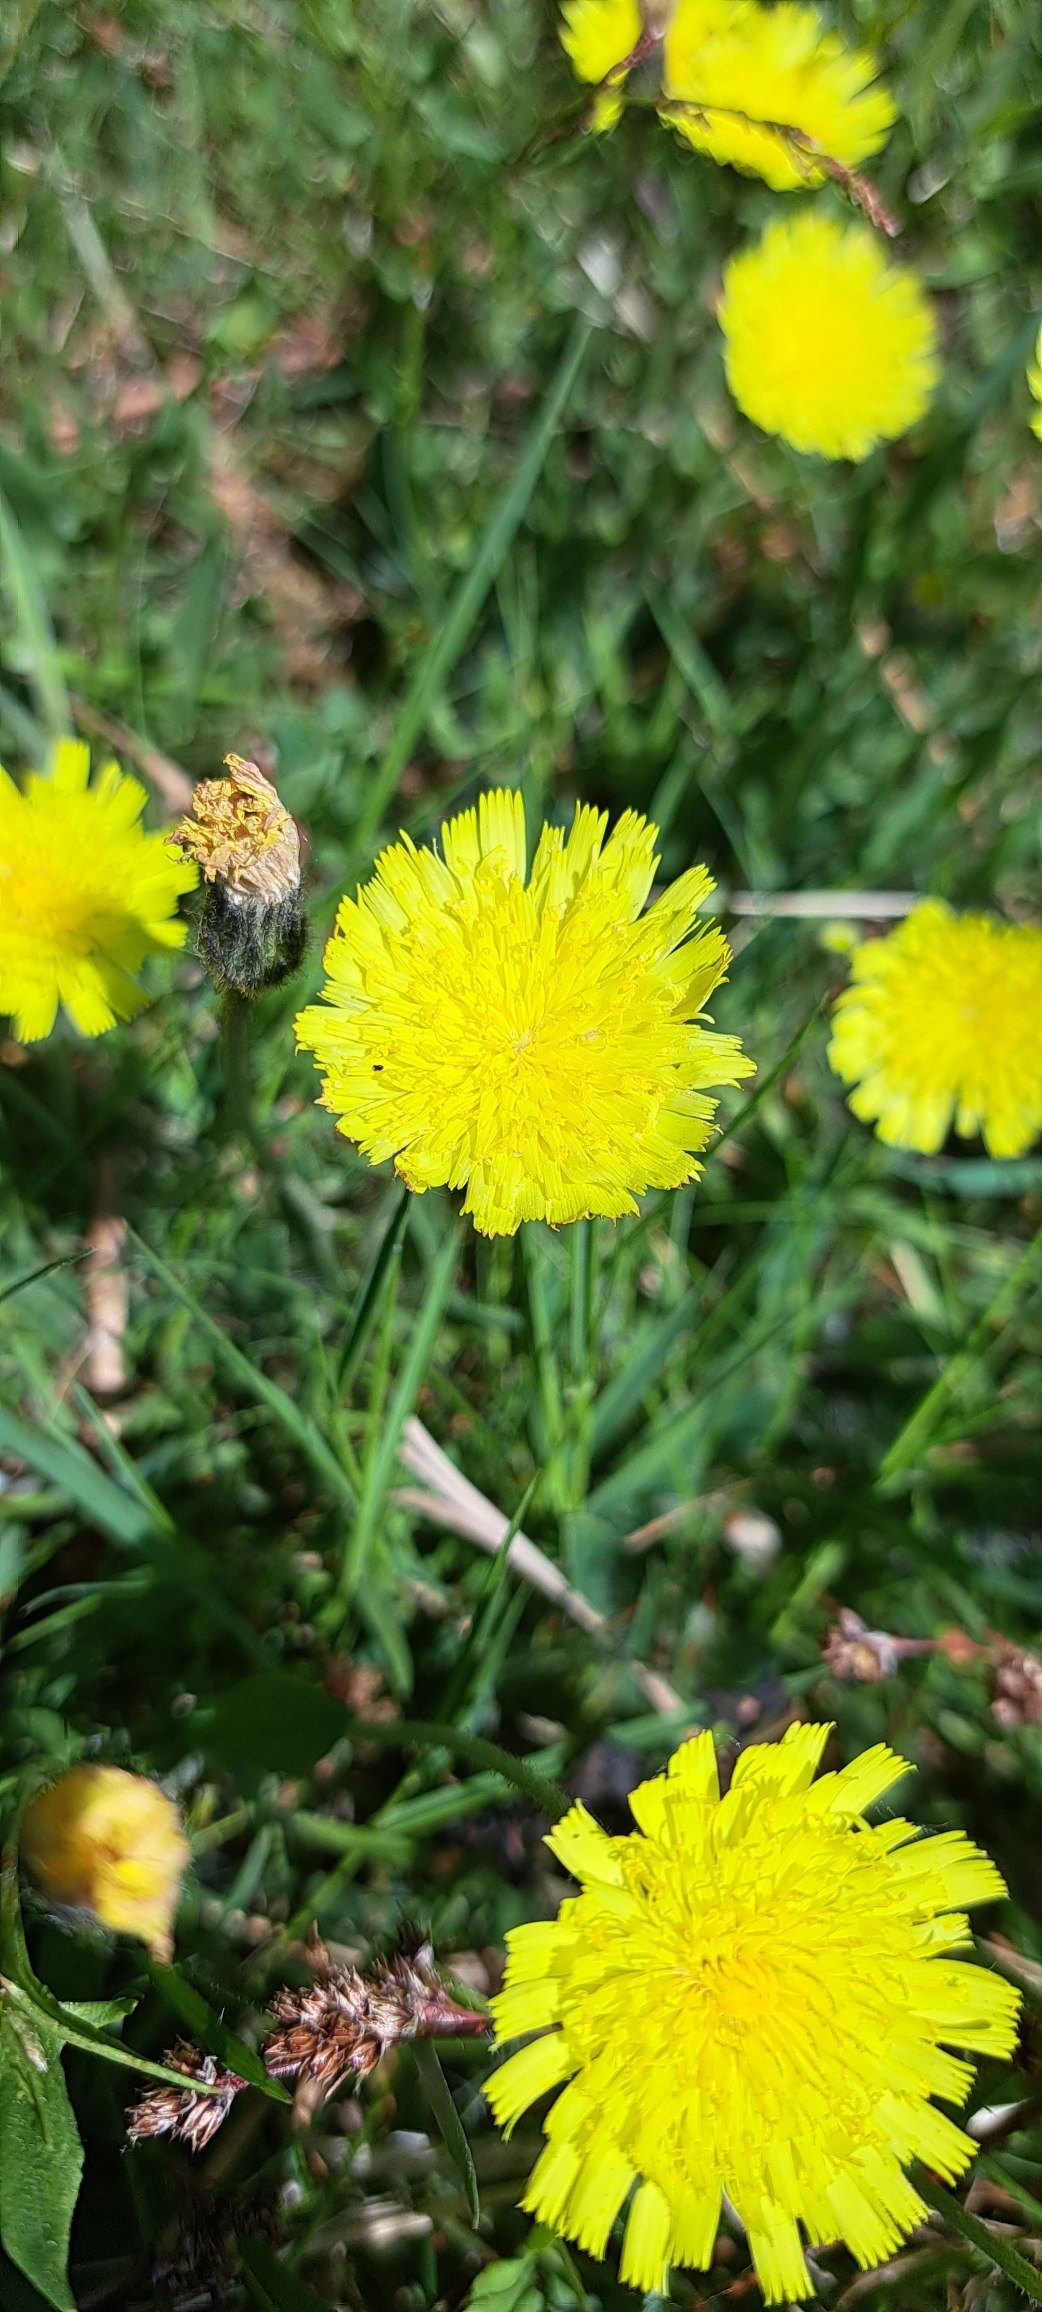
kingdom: Plantae
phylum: Tracheophyta
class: Magnoliopsida
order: Asterales
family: Asteraceae
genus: Pilosella
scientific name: Pilosella officinarum
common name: Håret høgeurt
